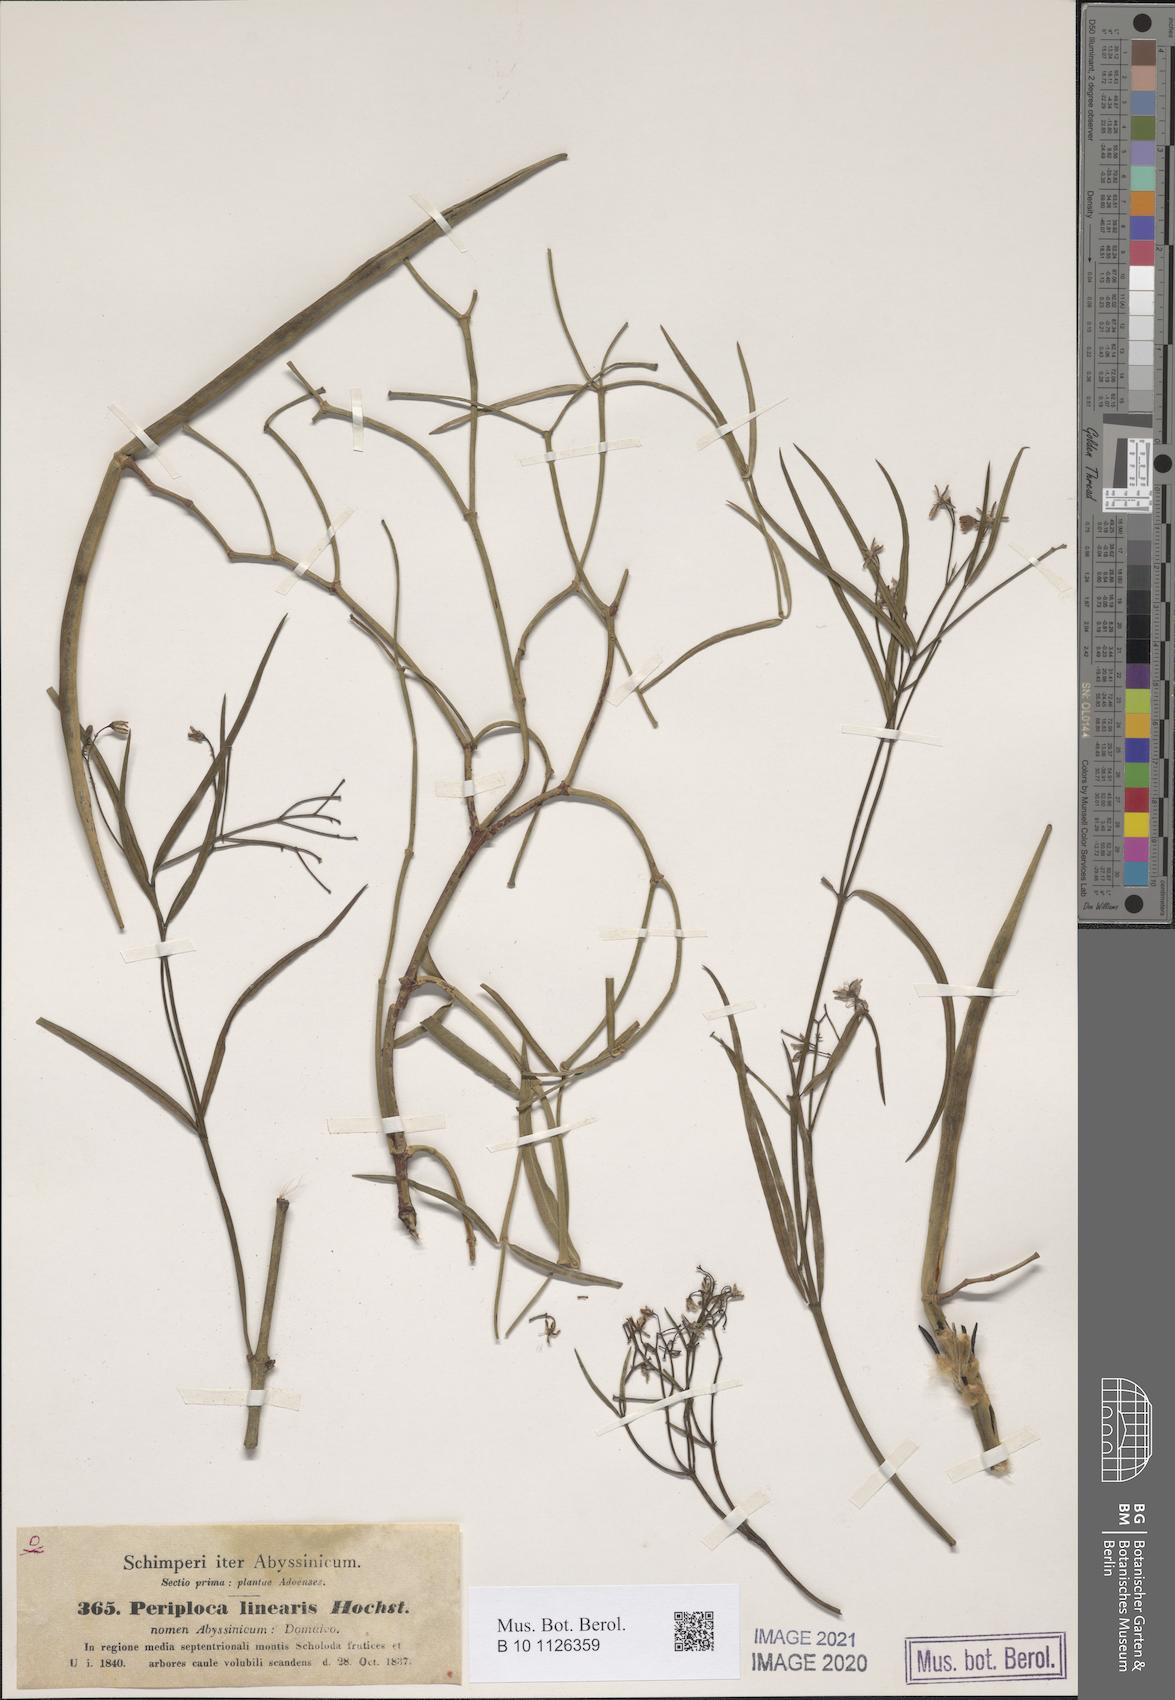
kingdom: Plantae
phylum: Tracheophyta
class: Magnoliopsida
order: Gentianales
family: Apocynaceae
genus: Periploca
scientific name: Periploca linearifolia
